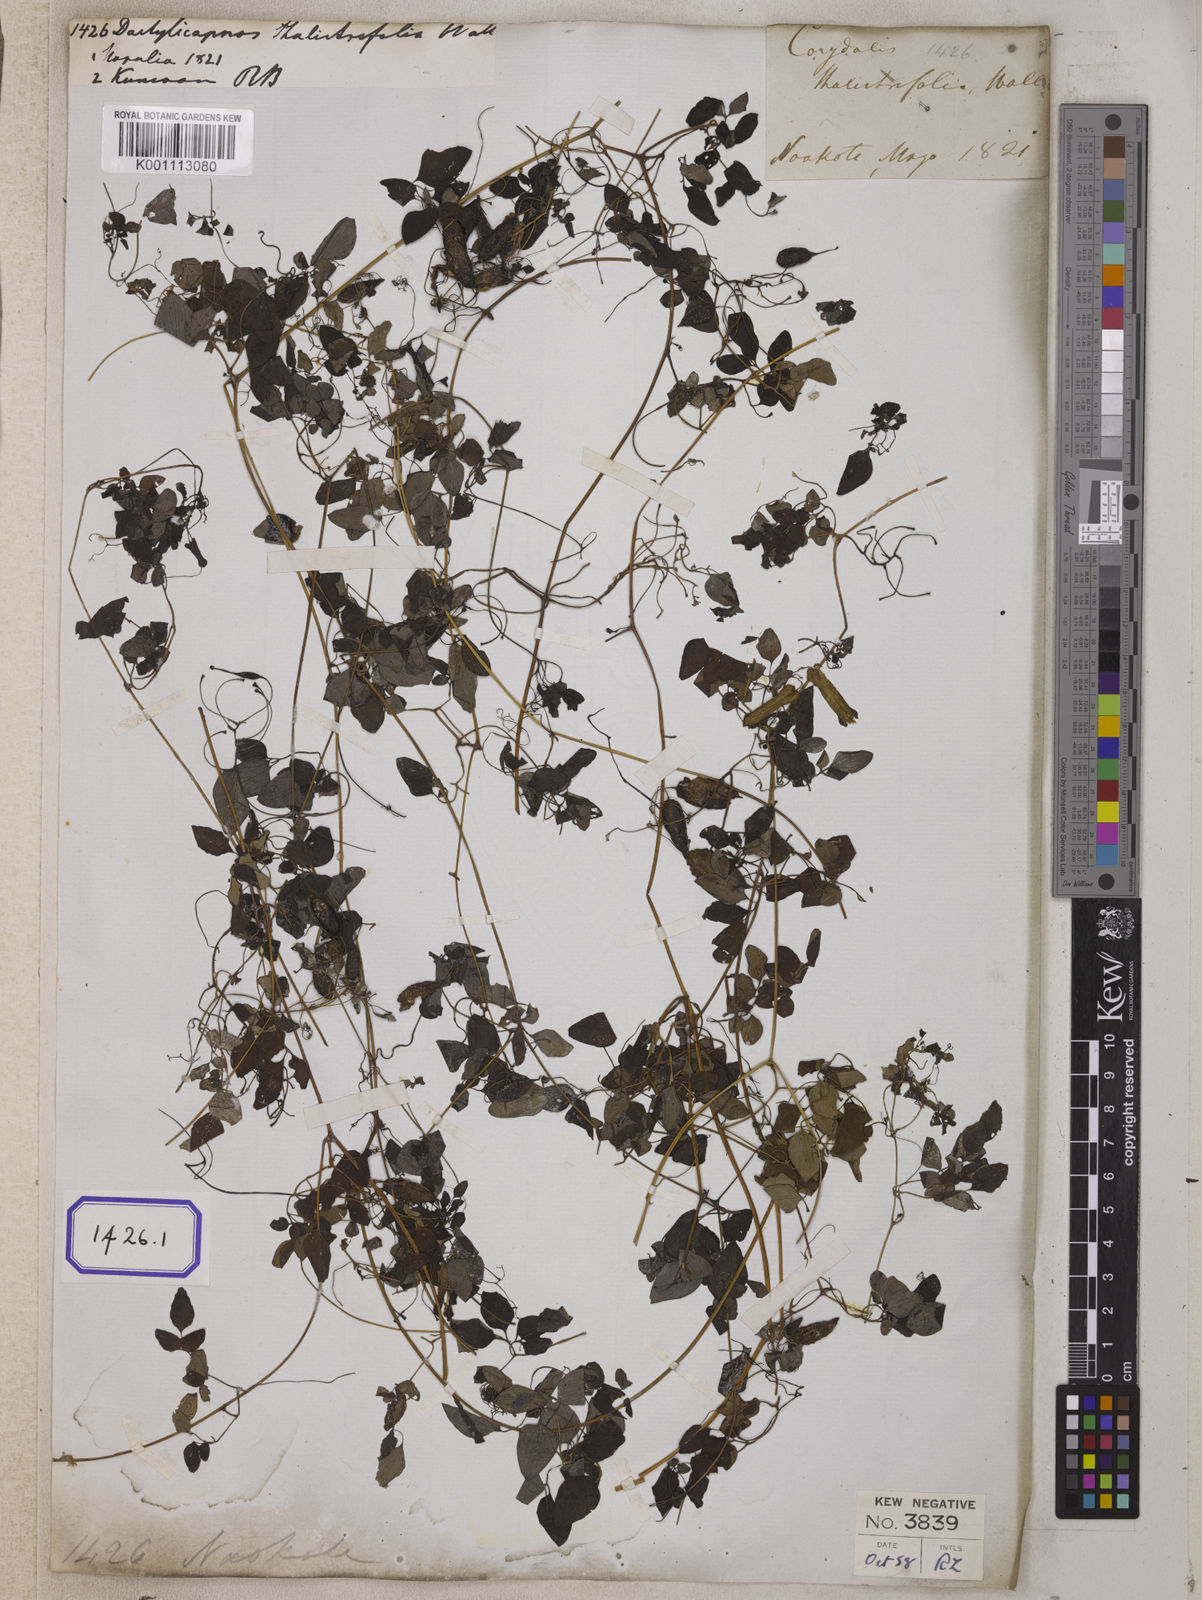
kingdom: Plantae
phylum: Tracheophyta
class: Magnoliopsida
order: Ranunculales
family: Papaveraceae
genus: Dactylicapnos
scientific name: Dactylicapnos scandens
